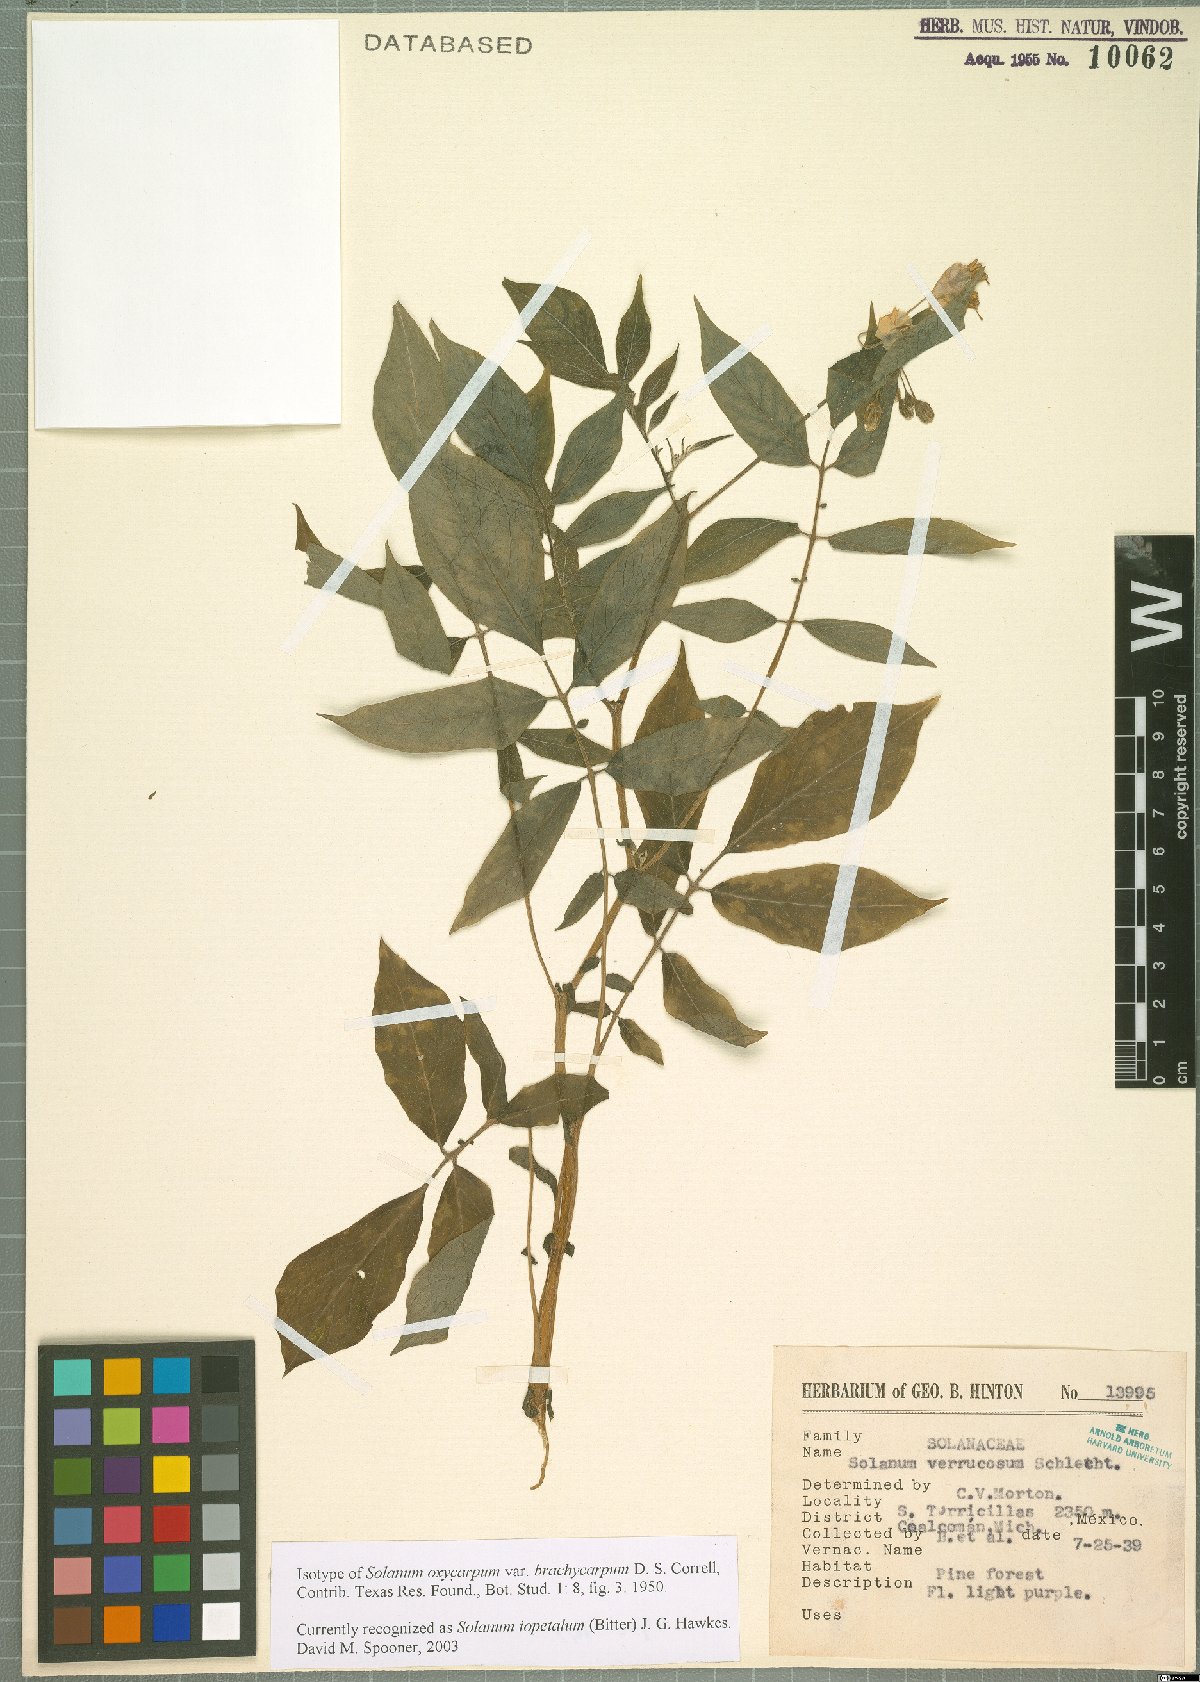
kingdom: Plantae
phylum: Tracheophyta
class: Magnoliopsida
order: Solanales
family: Solanaceae
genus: Solanum
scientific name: Solanum iopetalum
